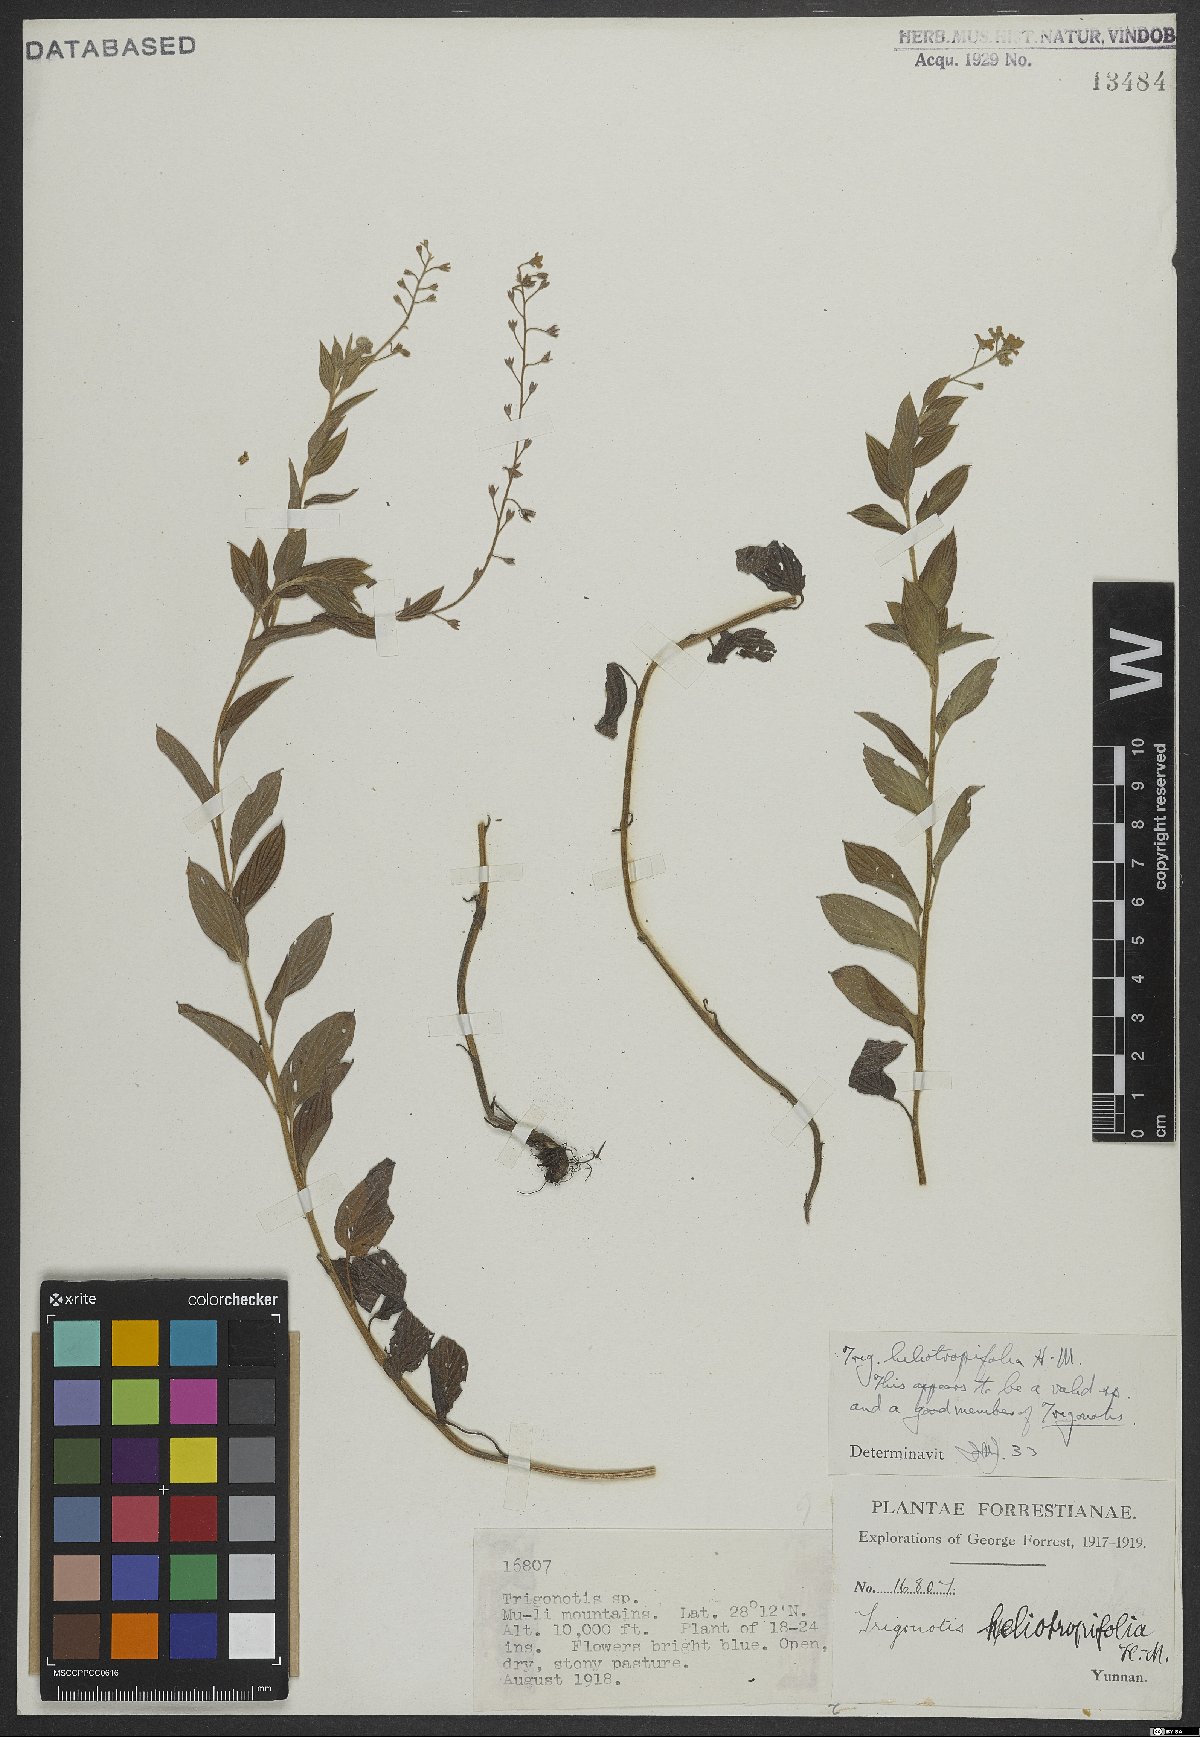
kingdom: Plantae
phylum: Tracheophyta
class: Magnoliopsida
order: Boraginales
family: Boraginaceae
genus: Trigonotis
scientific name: Trigonotis heliotropifolia
